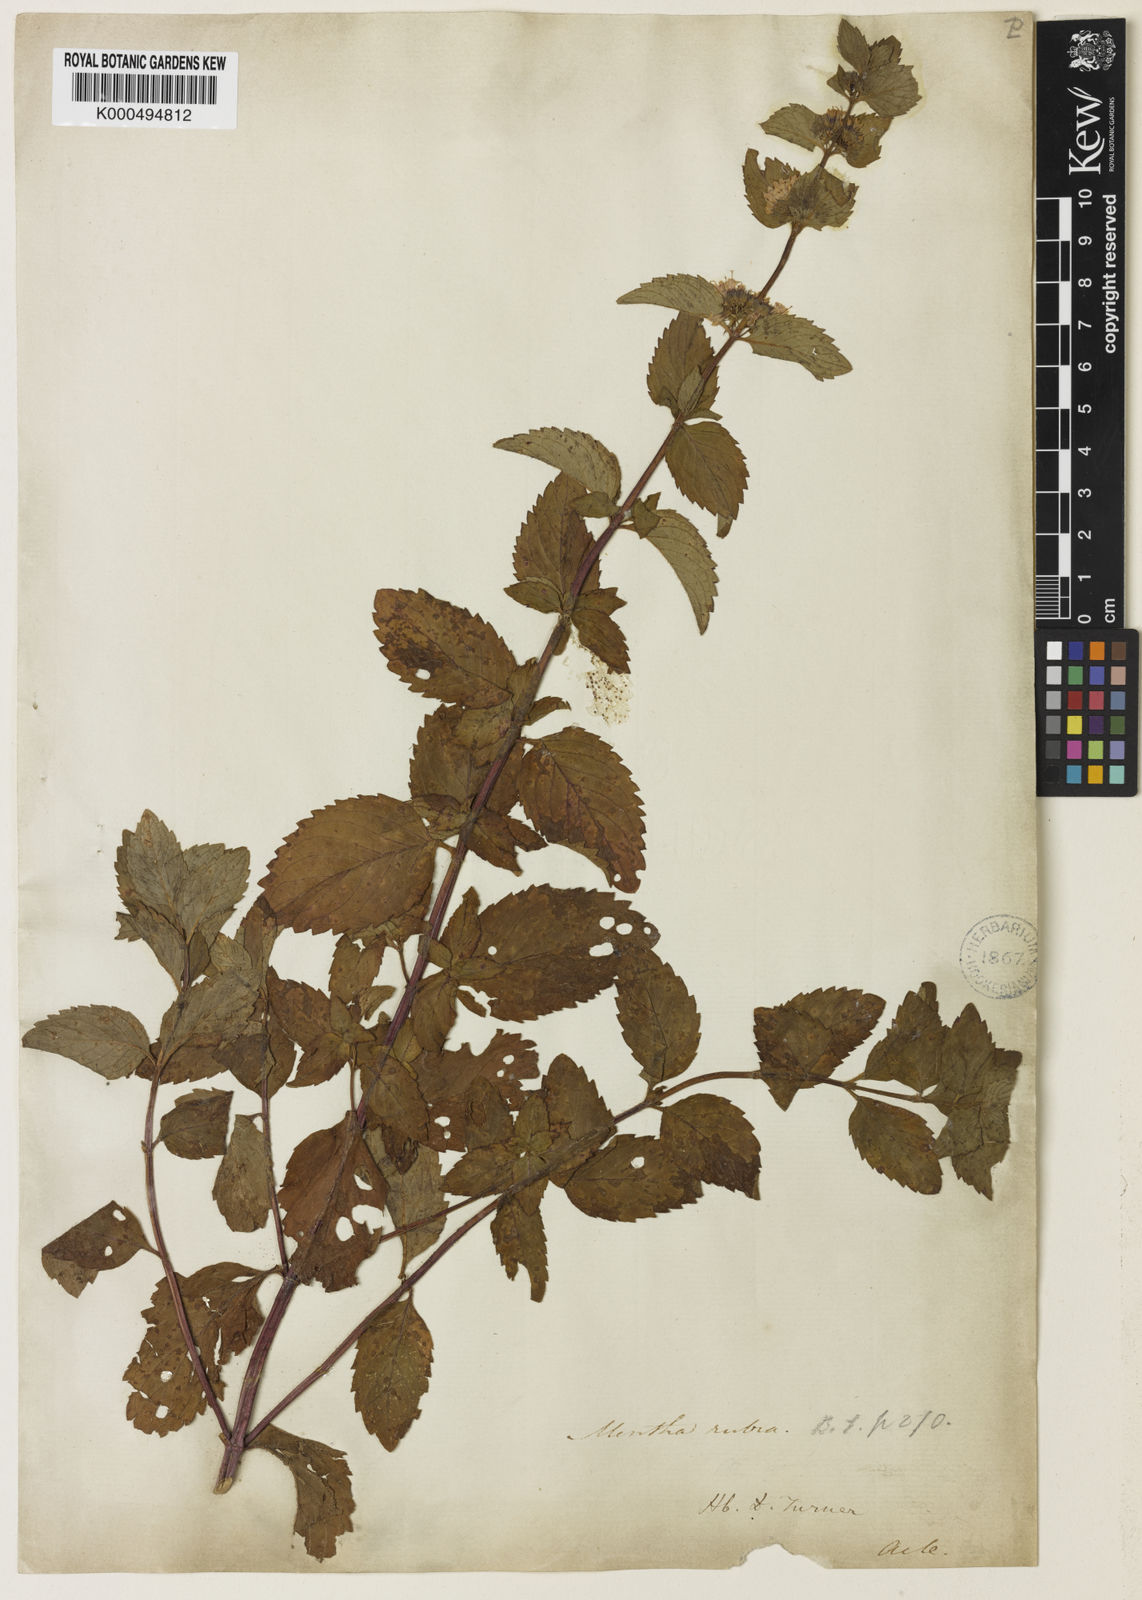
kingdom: Plantae
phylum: Tracheophyta
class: Magnoliopsida
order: Lamiales
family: Lamiaceae
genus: Mentha
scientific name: Mentha wirtgeniana
